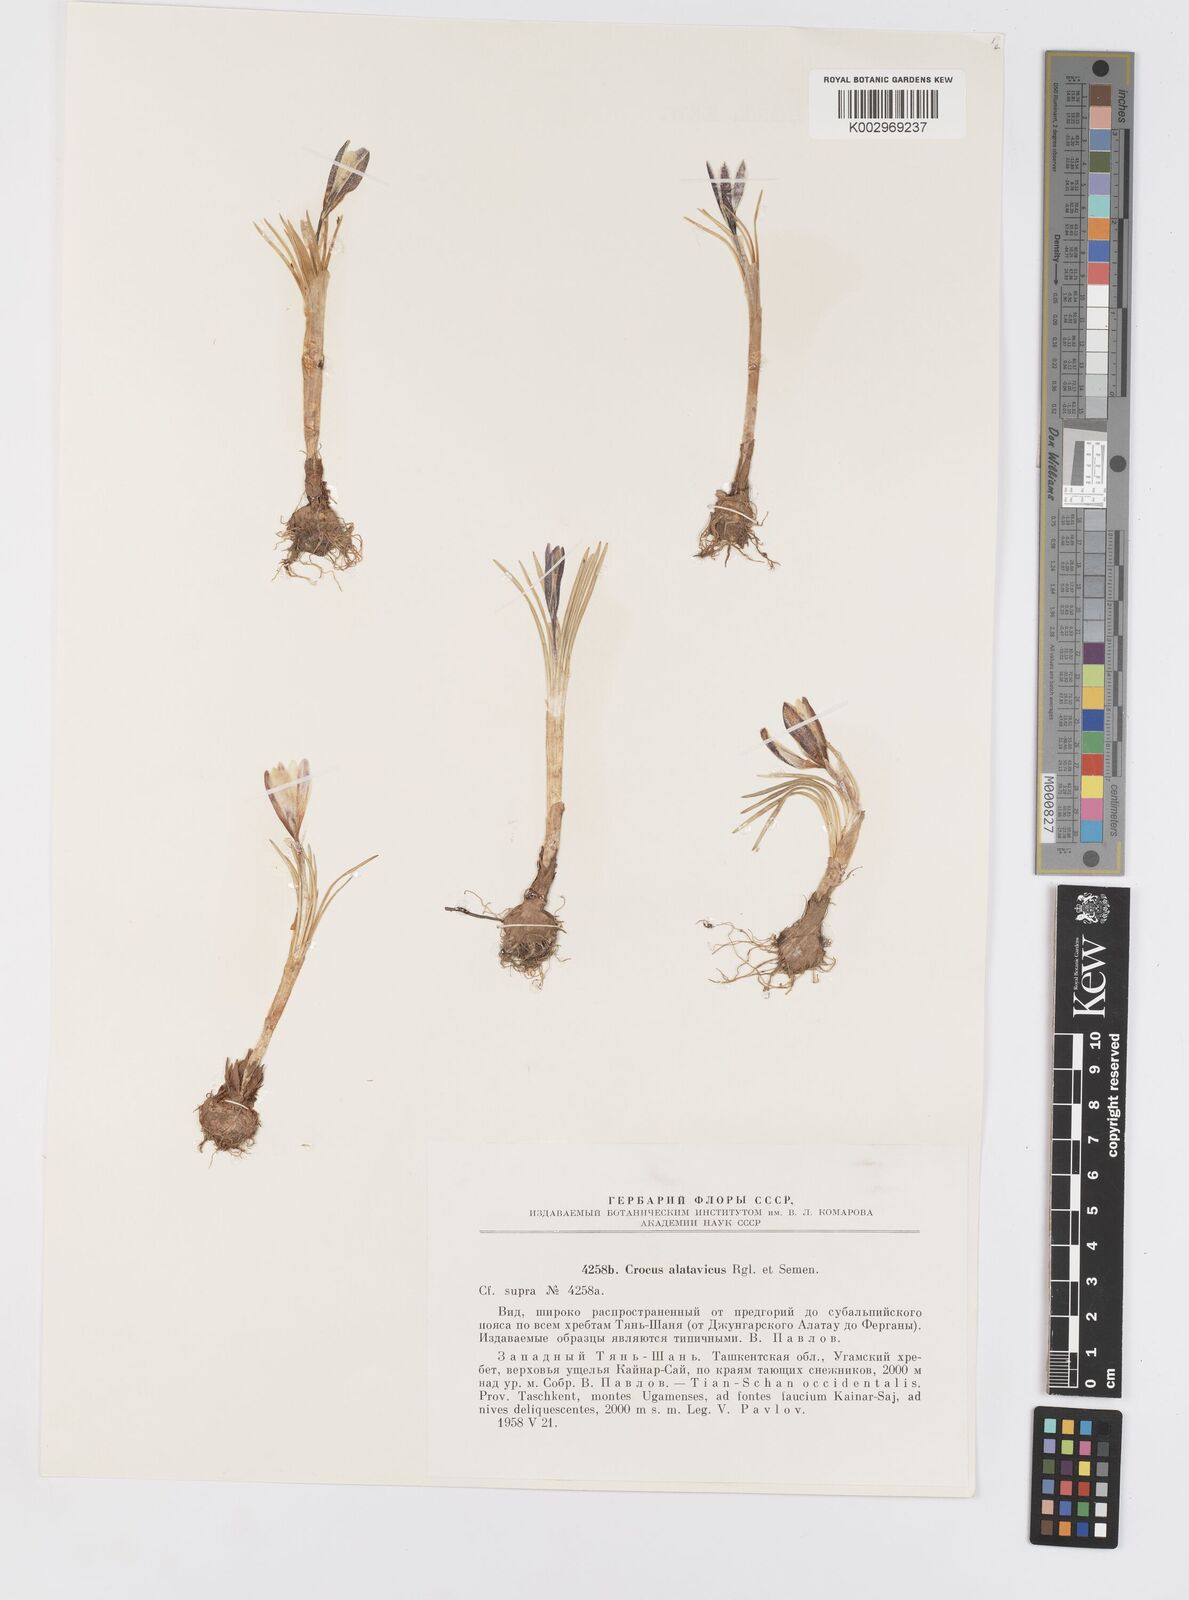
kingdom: Plantae
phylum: Tracheophyta
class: Liliopsida
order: Asparagales
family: Iridaceae
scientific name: Iridaceae
